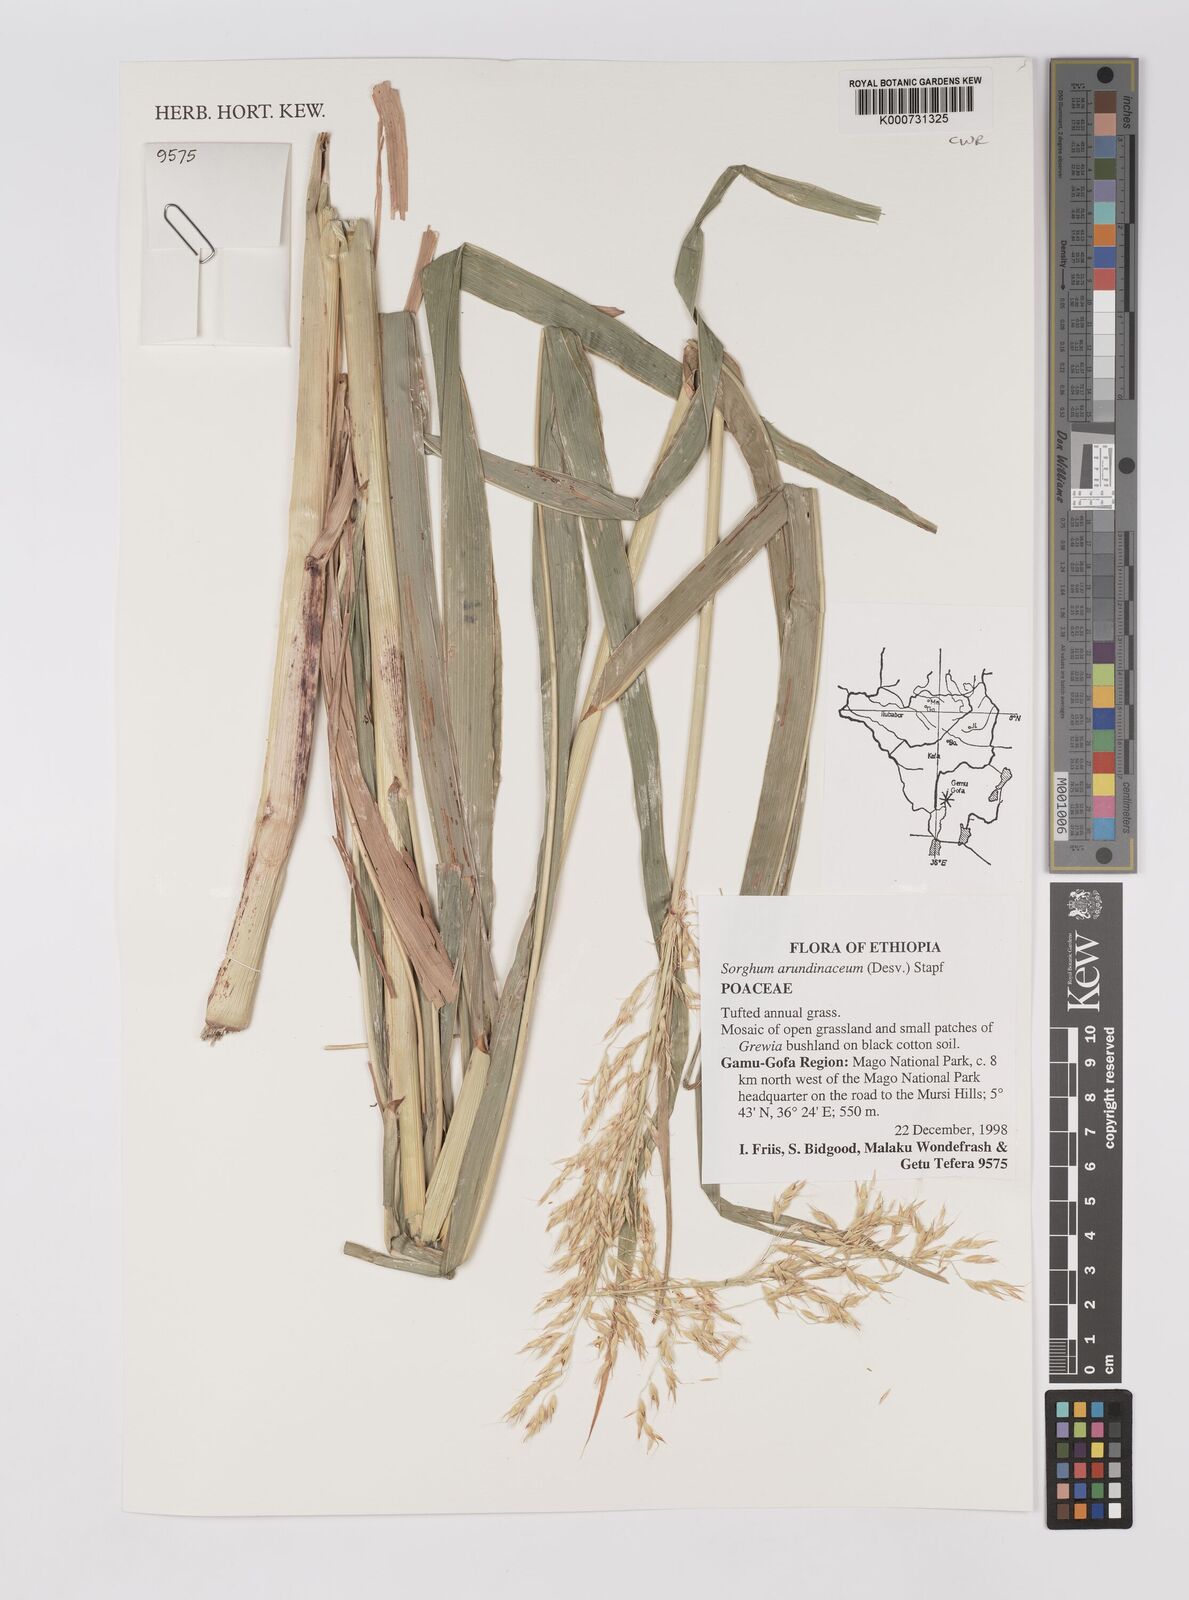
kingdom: Plantae
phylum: Tracheophyta
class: Liliopsida
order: Poales
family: Poaceae
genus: Sorghum
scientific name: Sorghum arundinaceum
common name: Sorghum
